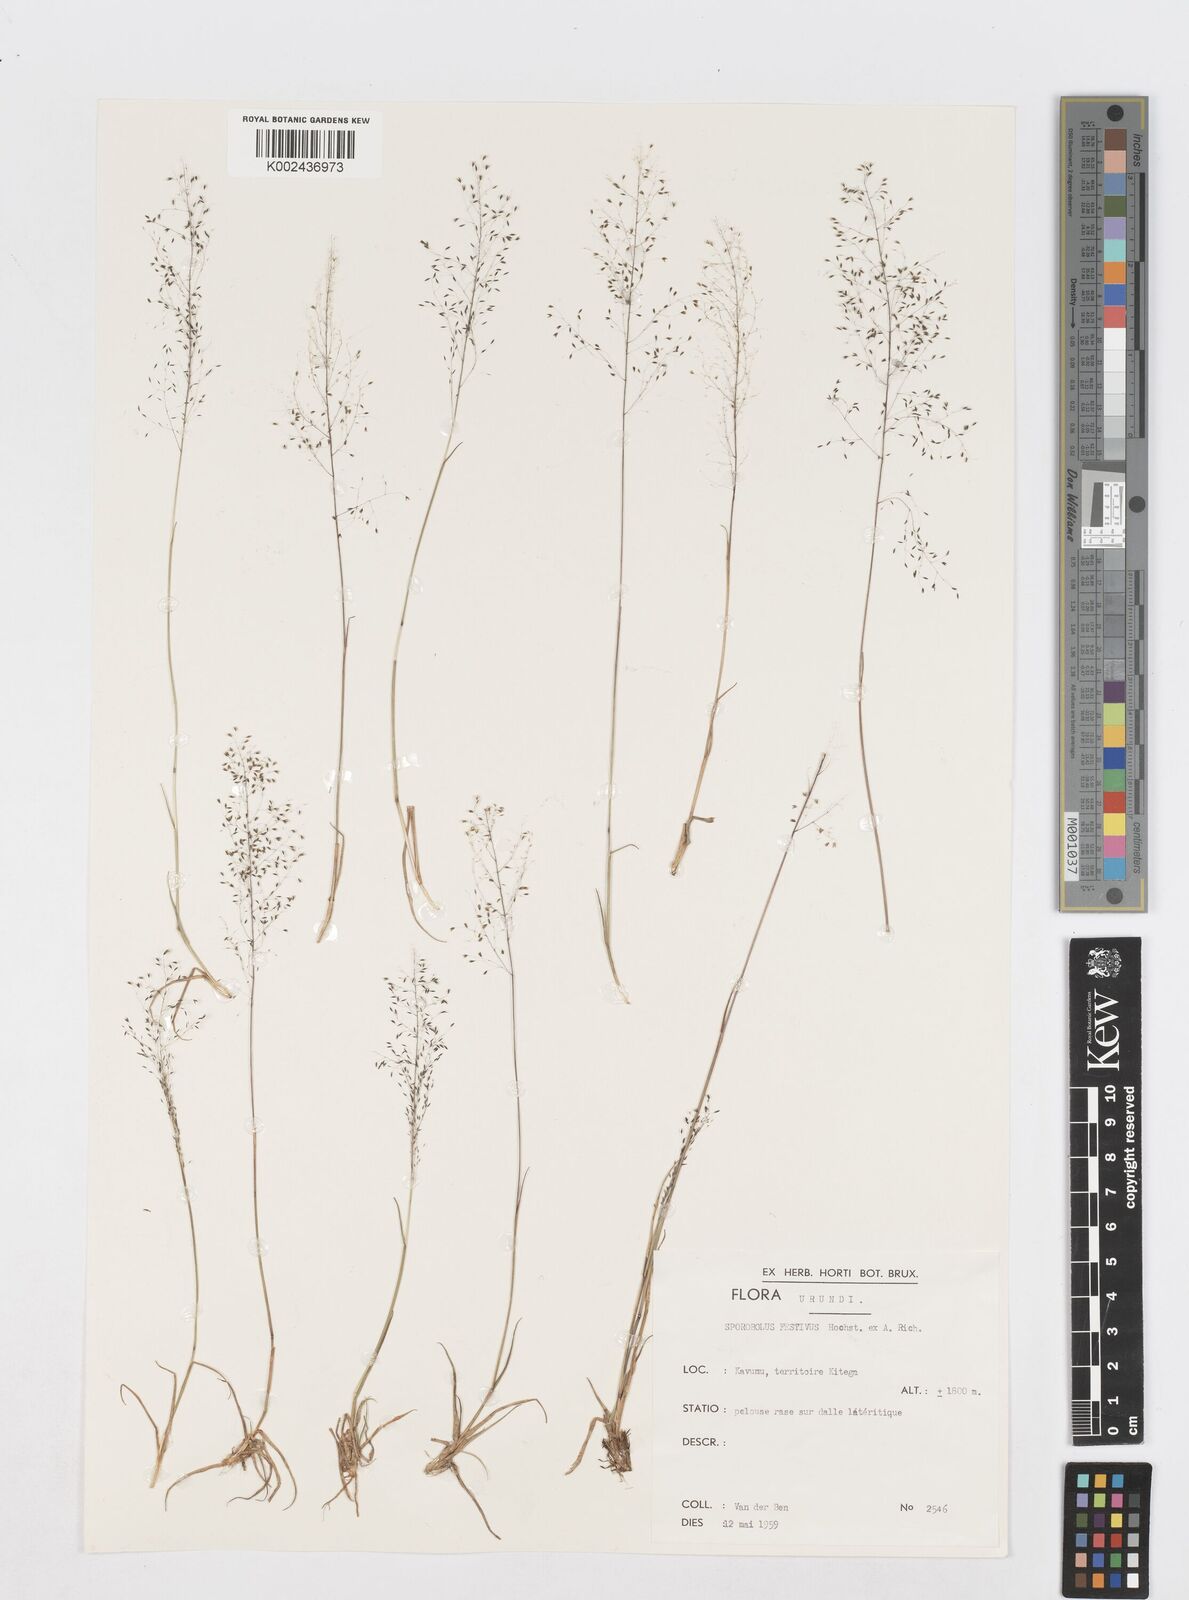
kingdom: Plantae
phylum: Tracheophyta
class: Liliopsida
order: Poales
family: Poaceae
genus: Sporobolus
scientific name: Sporobolus festivus
